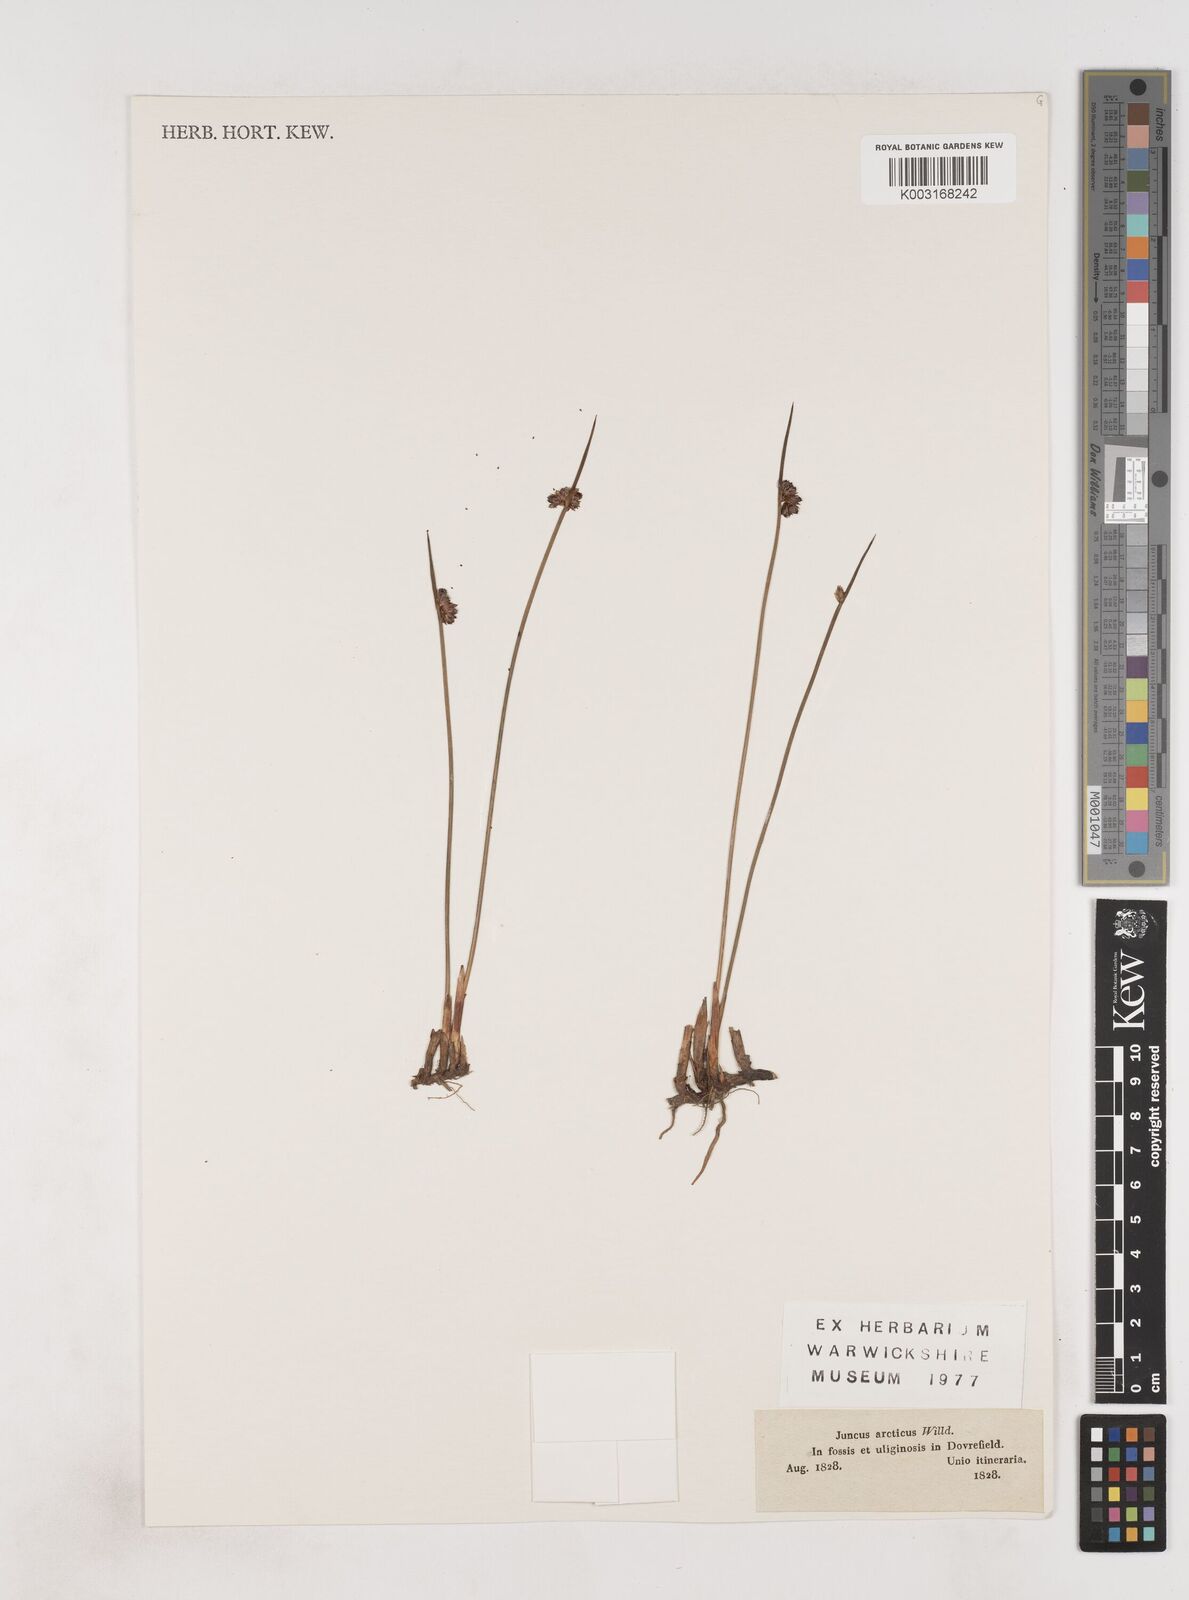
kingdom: Plantae
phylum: Tracheophyta
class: Liliopsida
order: Poales
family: Juncaceae
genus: Juncus
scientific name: Juncus arcticus
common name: Arctic rush
